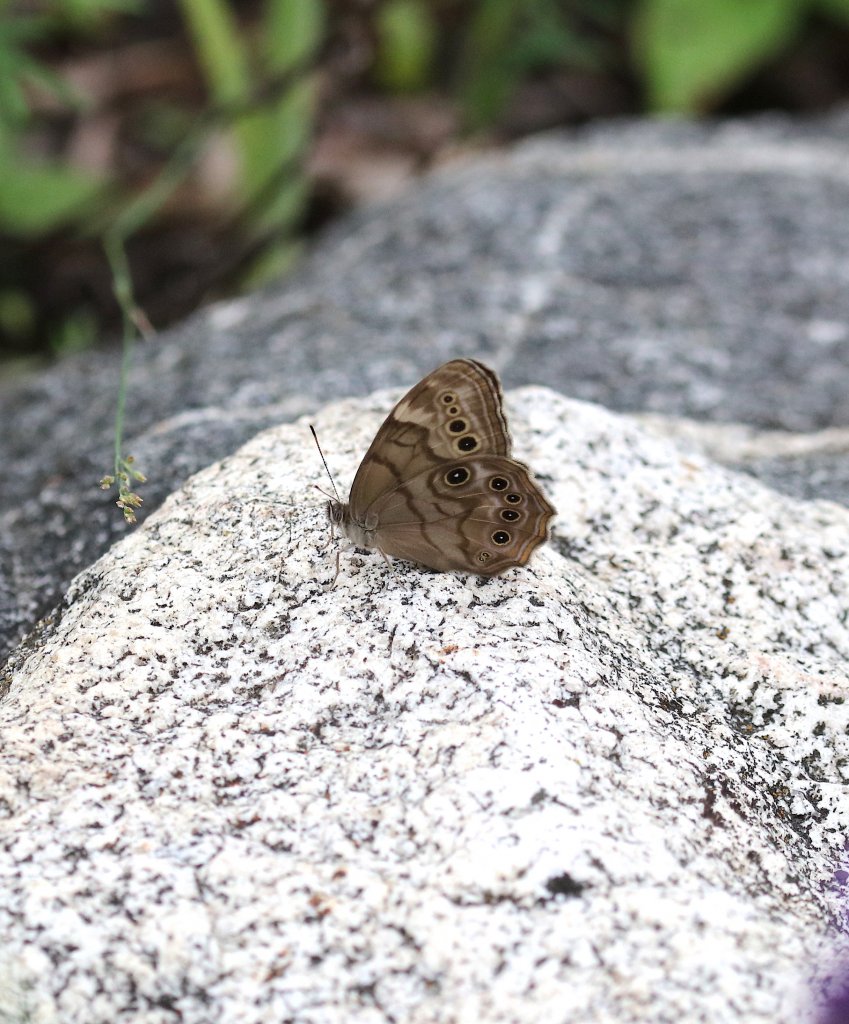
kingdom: Animalia
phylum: Arthropoda
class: Insecta
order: Lepidoptera
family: Nymphalidae
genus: Lethe
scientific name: Lethe anthedon
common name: Northern Pearly-Eye
